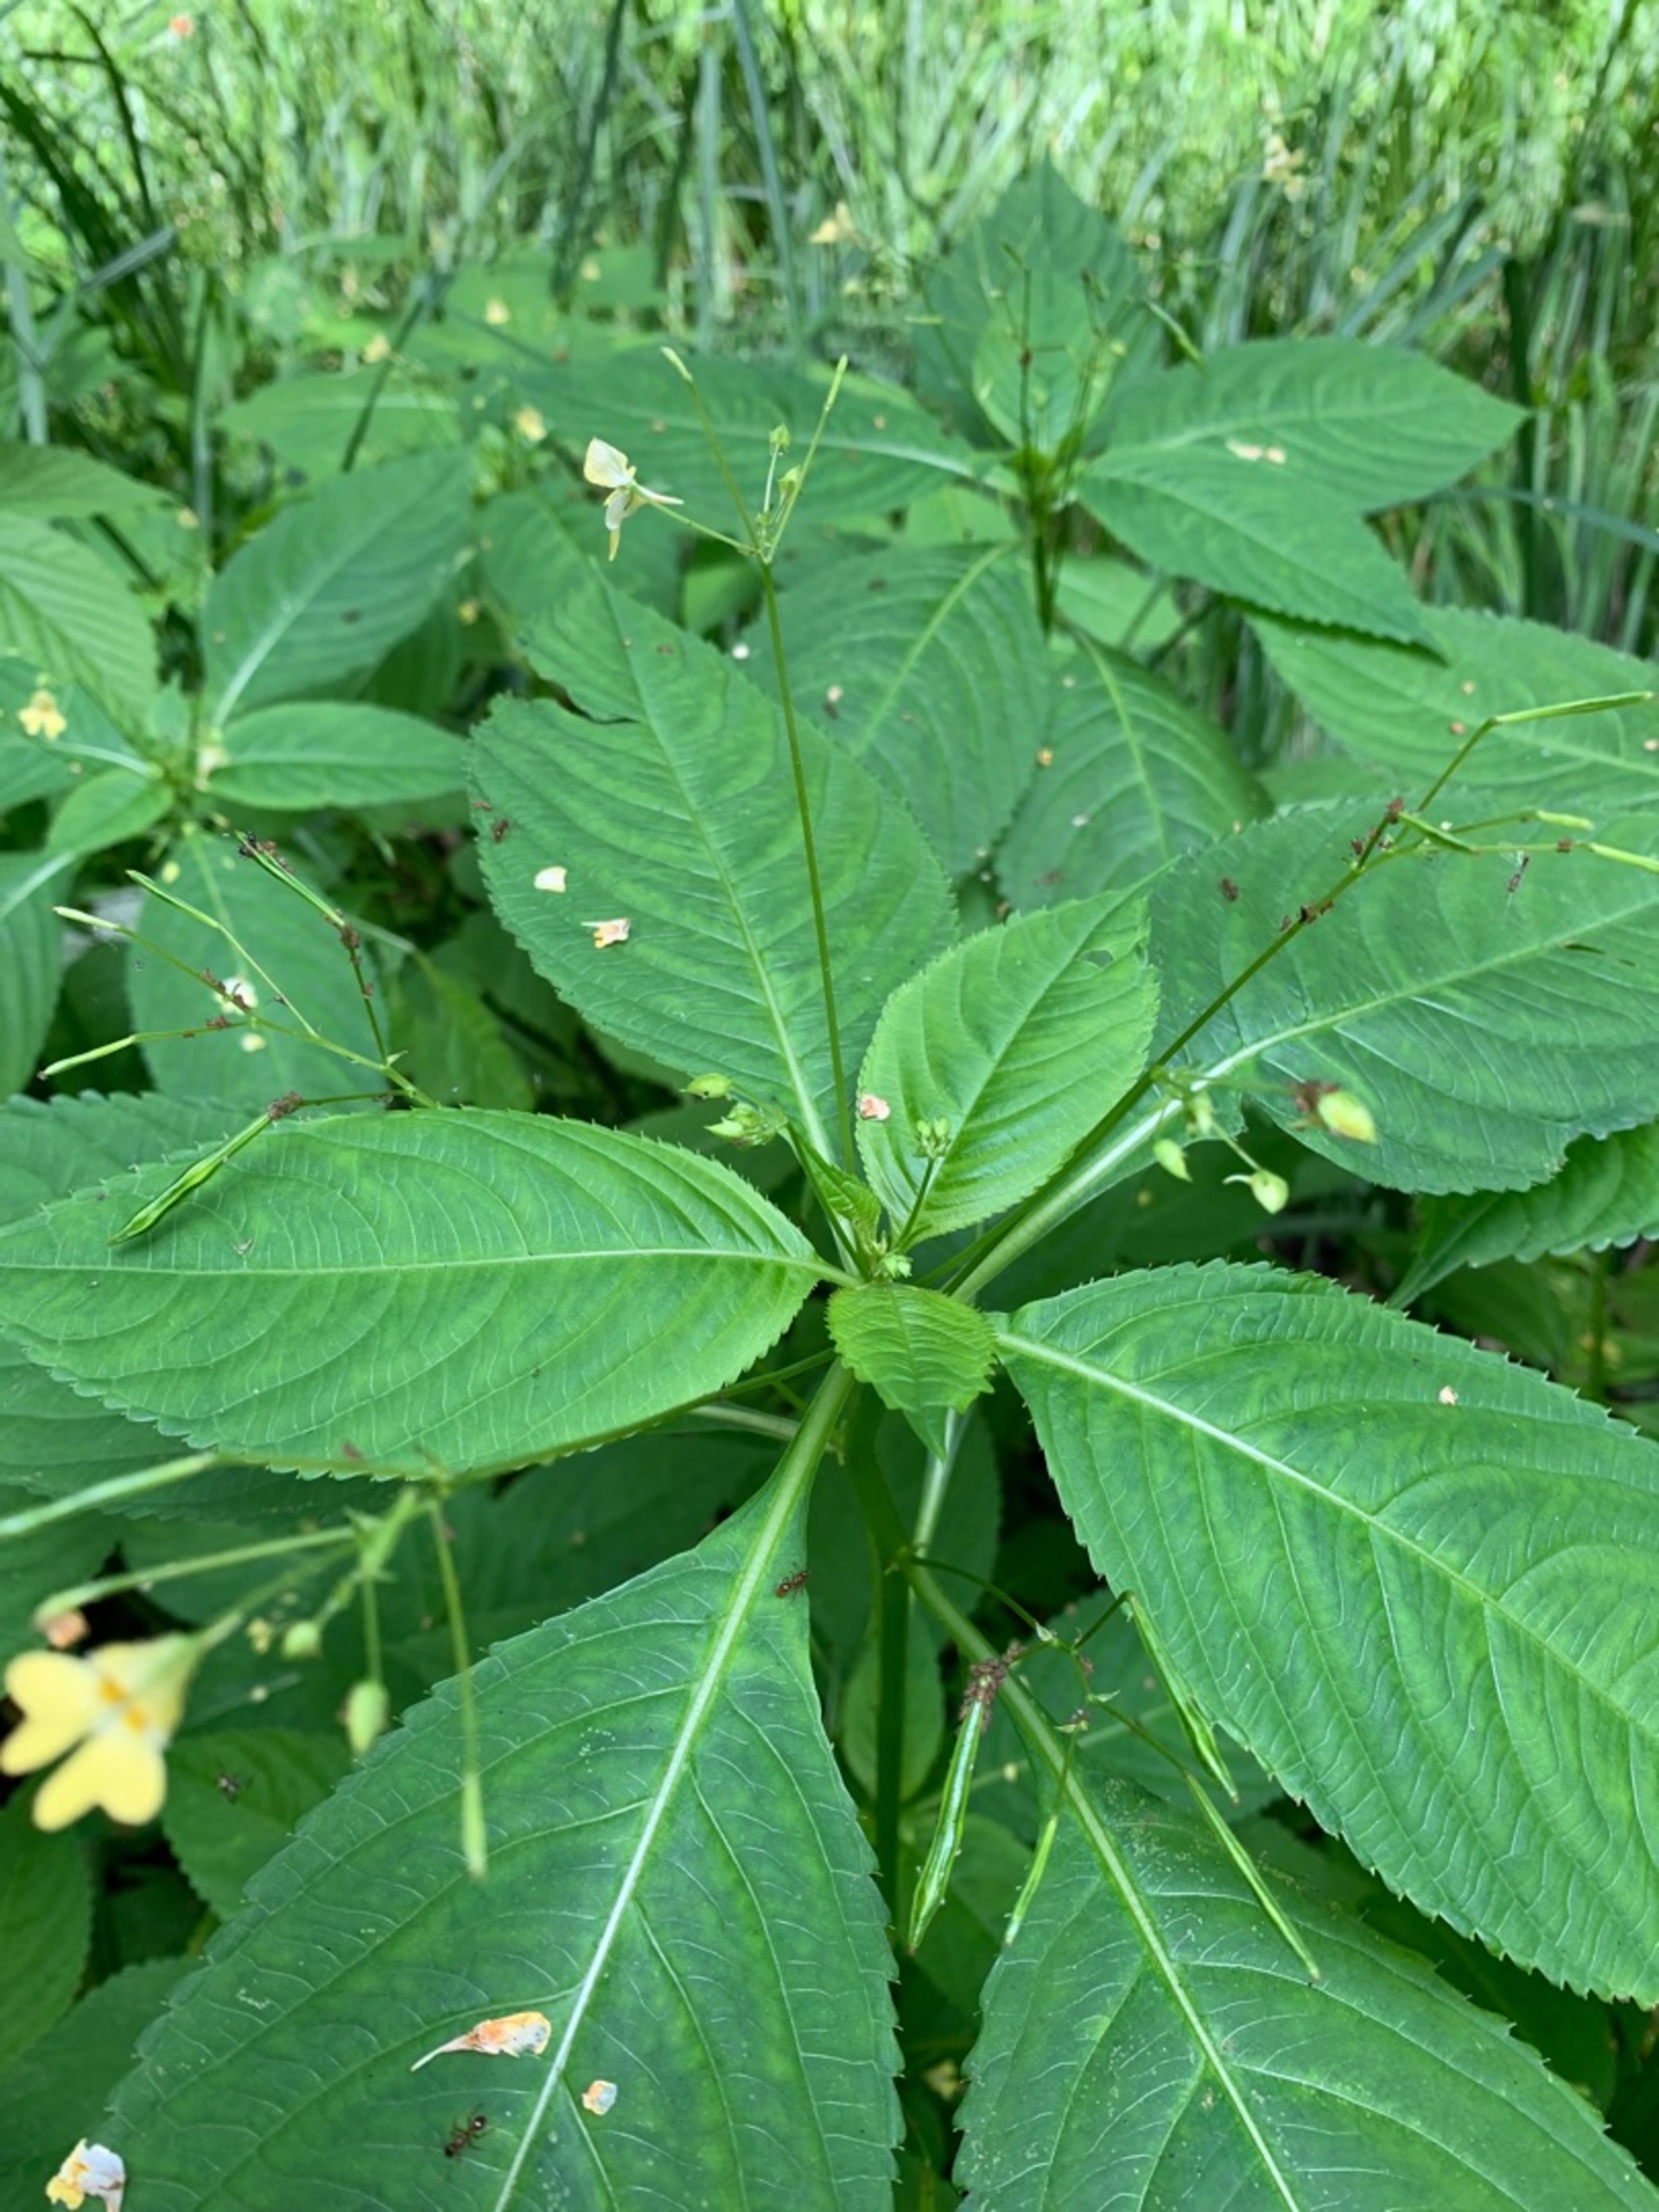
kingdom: Plantae
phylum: Tracheophyta
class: Magnoliopsida
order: Ericales
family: Balsaminaceae
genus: Impatiens
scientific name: Impatiens parviflora
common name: Småblomstret balsamin
